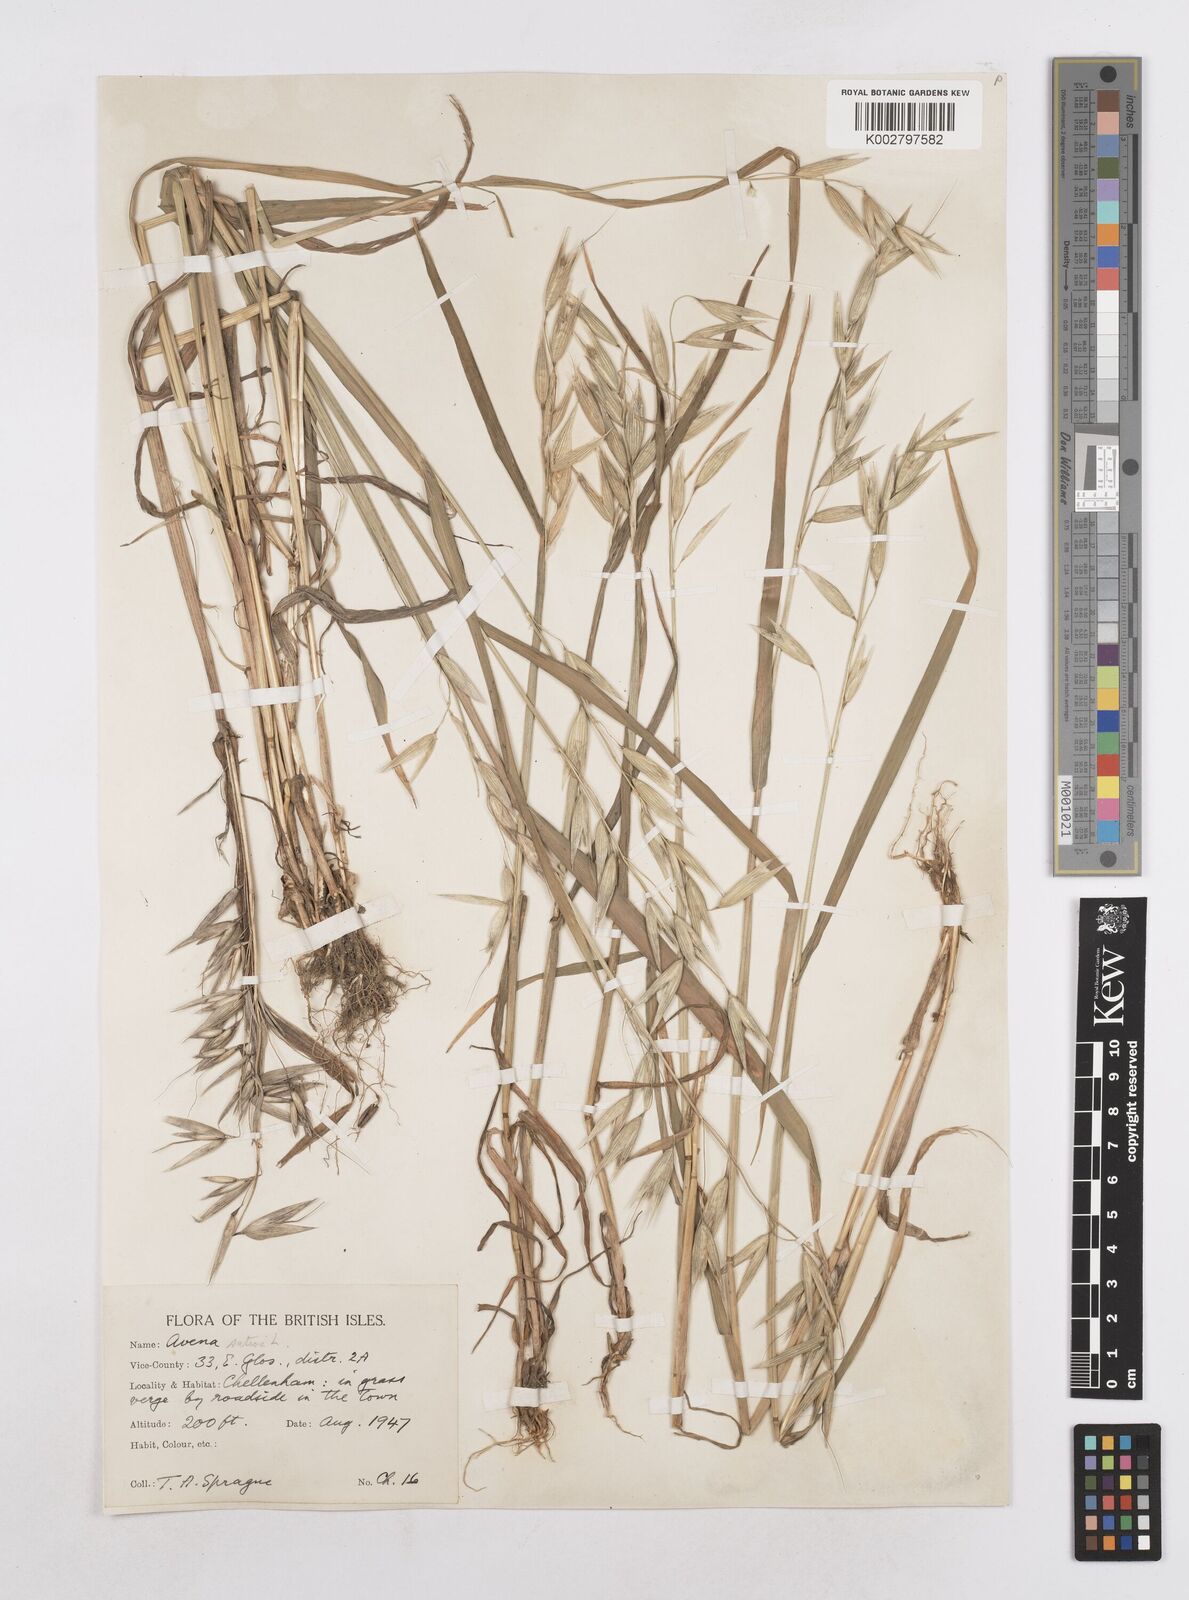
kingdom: Plantae
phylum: Tracheophyta
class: Liliopsida
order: Poales
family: Poaceae
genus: Avena
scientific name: Avena sativa
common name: Oat
